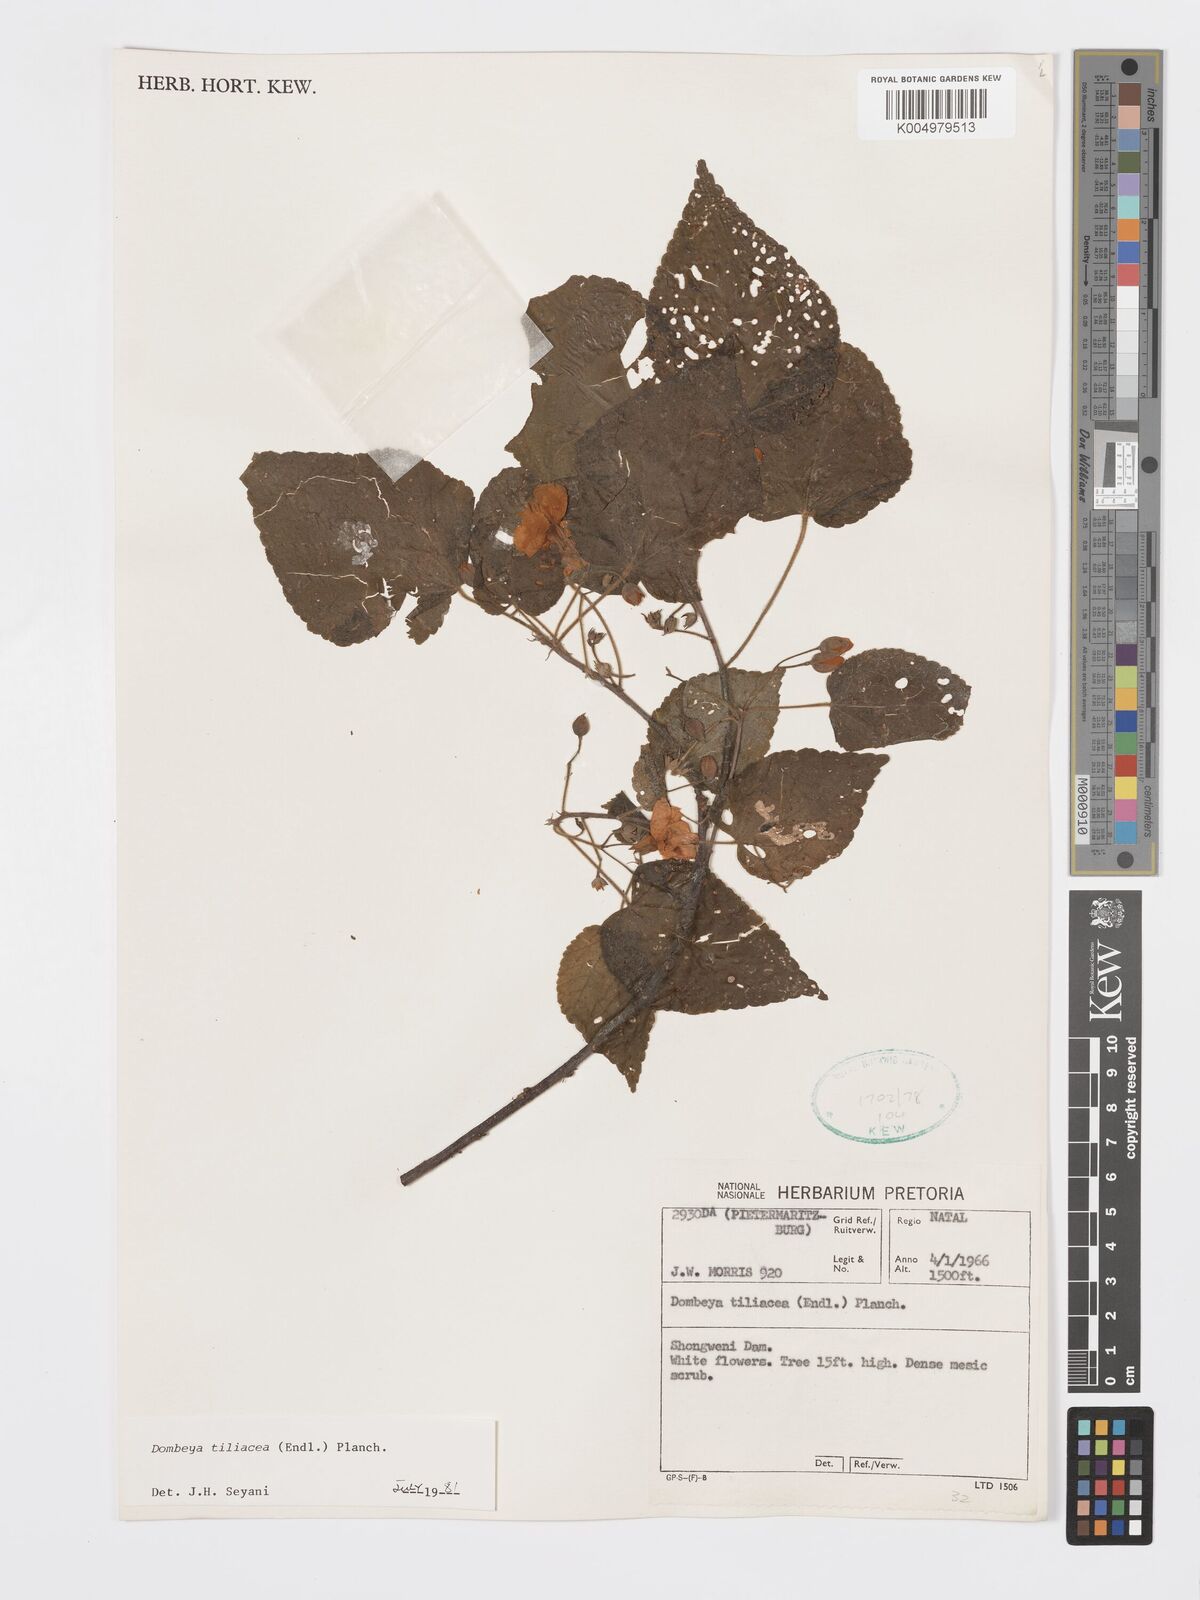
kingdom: Plantae
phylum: Tracheophyta
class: Magnoliopsida
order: Malvales
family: Malvaceae
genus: Dombeya
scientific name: Dombeya tiliacea
